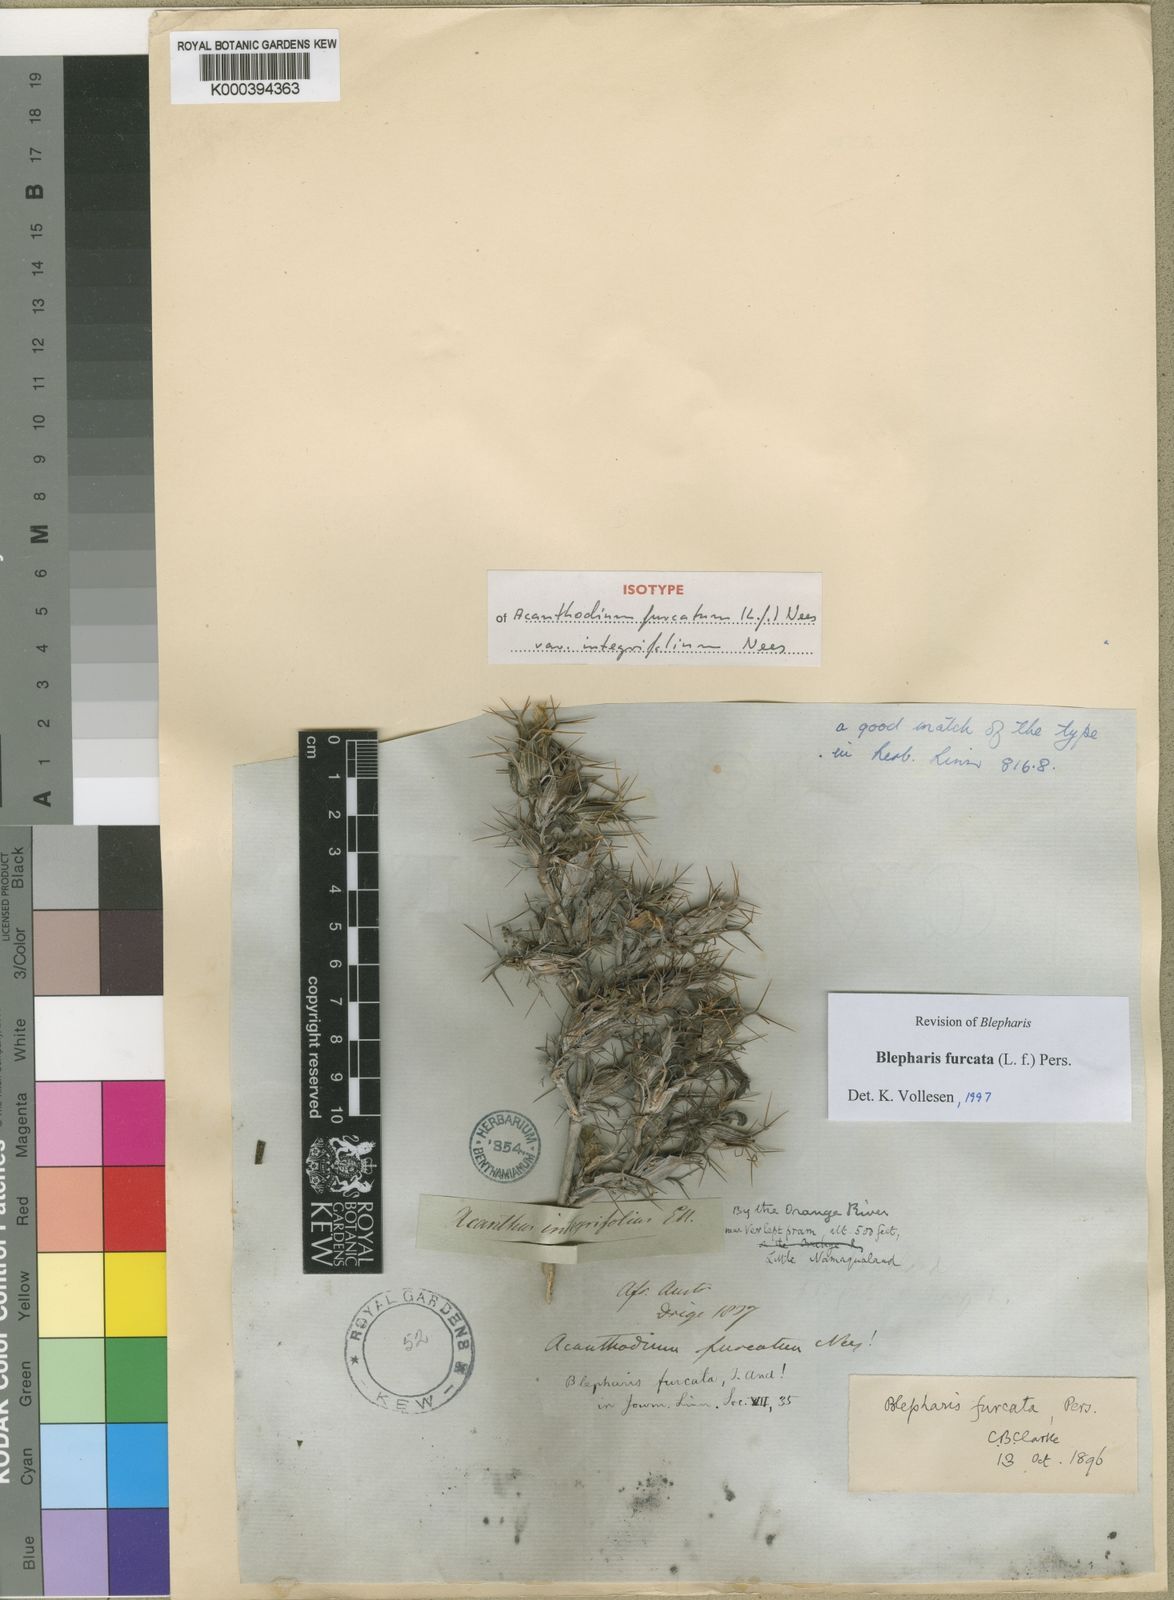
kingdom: Plantae
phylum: Tracheophyta
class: Magnoliopsida
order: Lamiales
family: Acanthaceae
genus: Blepharis
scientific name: Blepharis furcata
